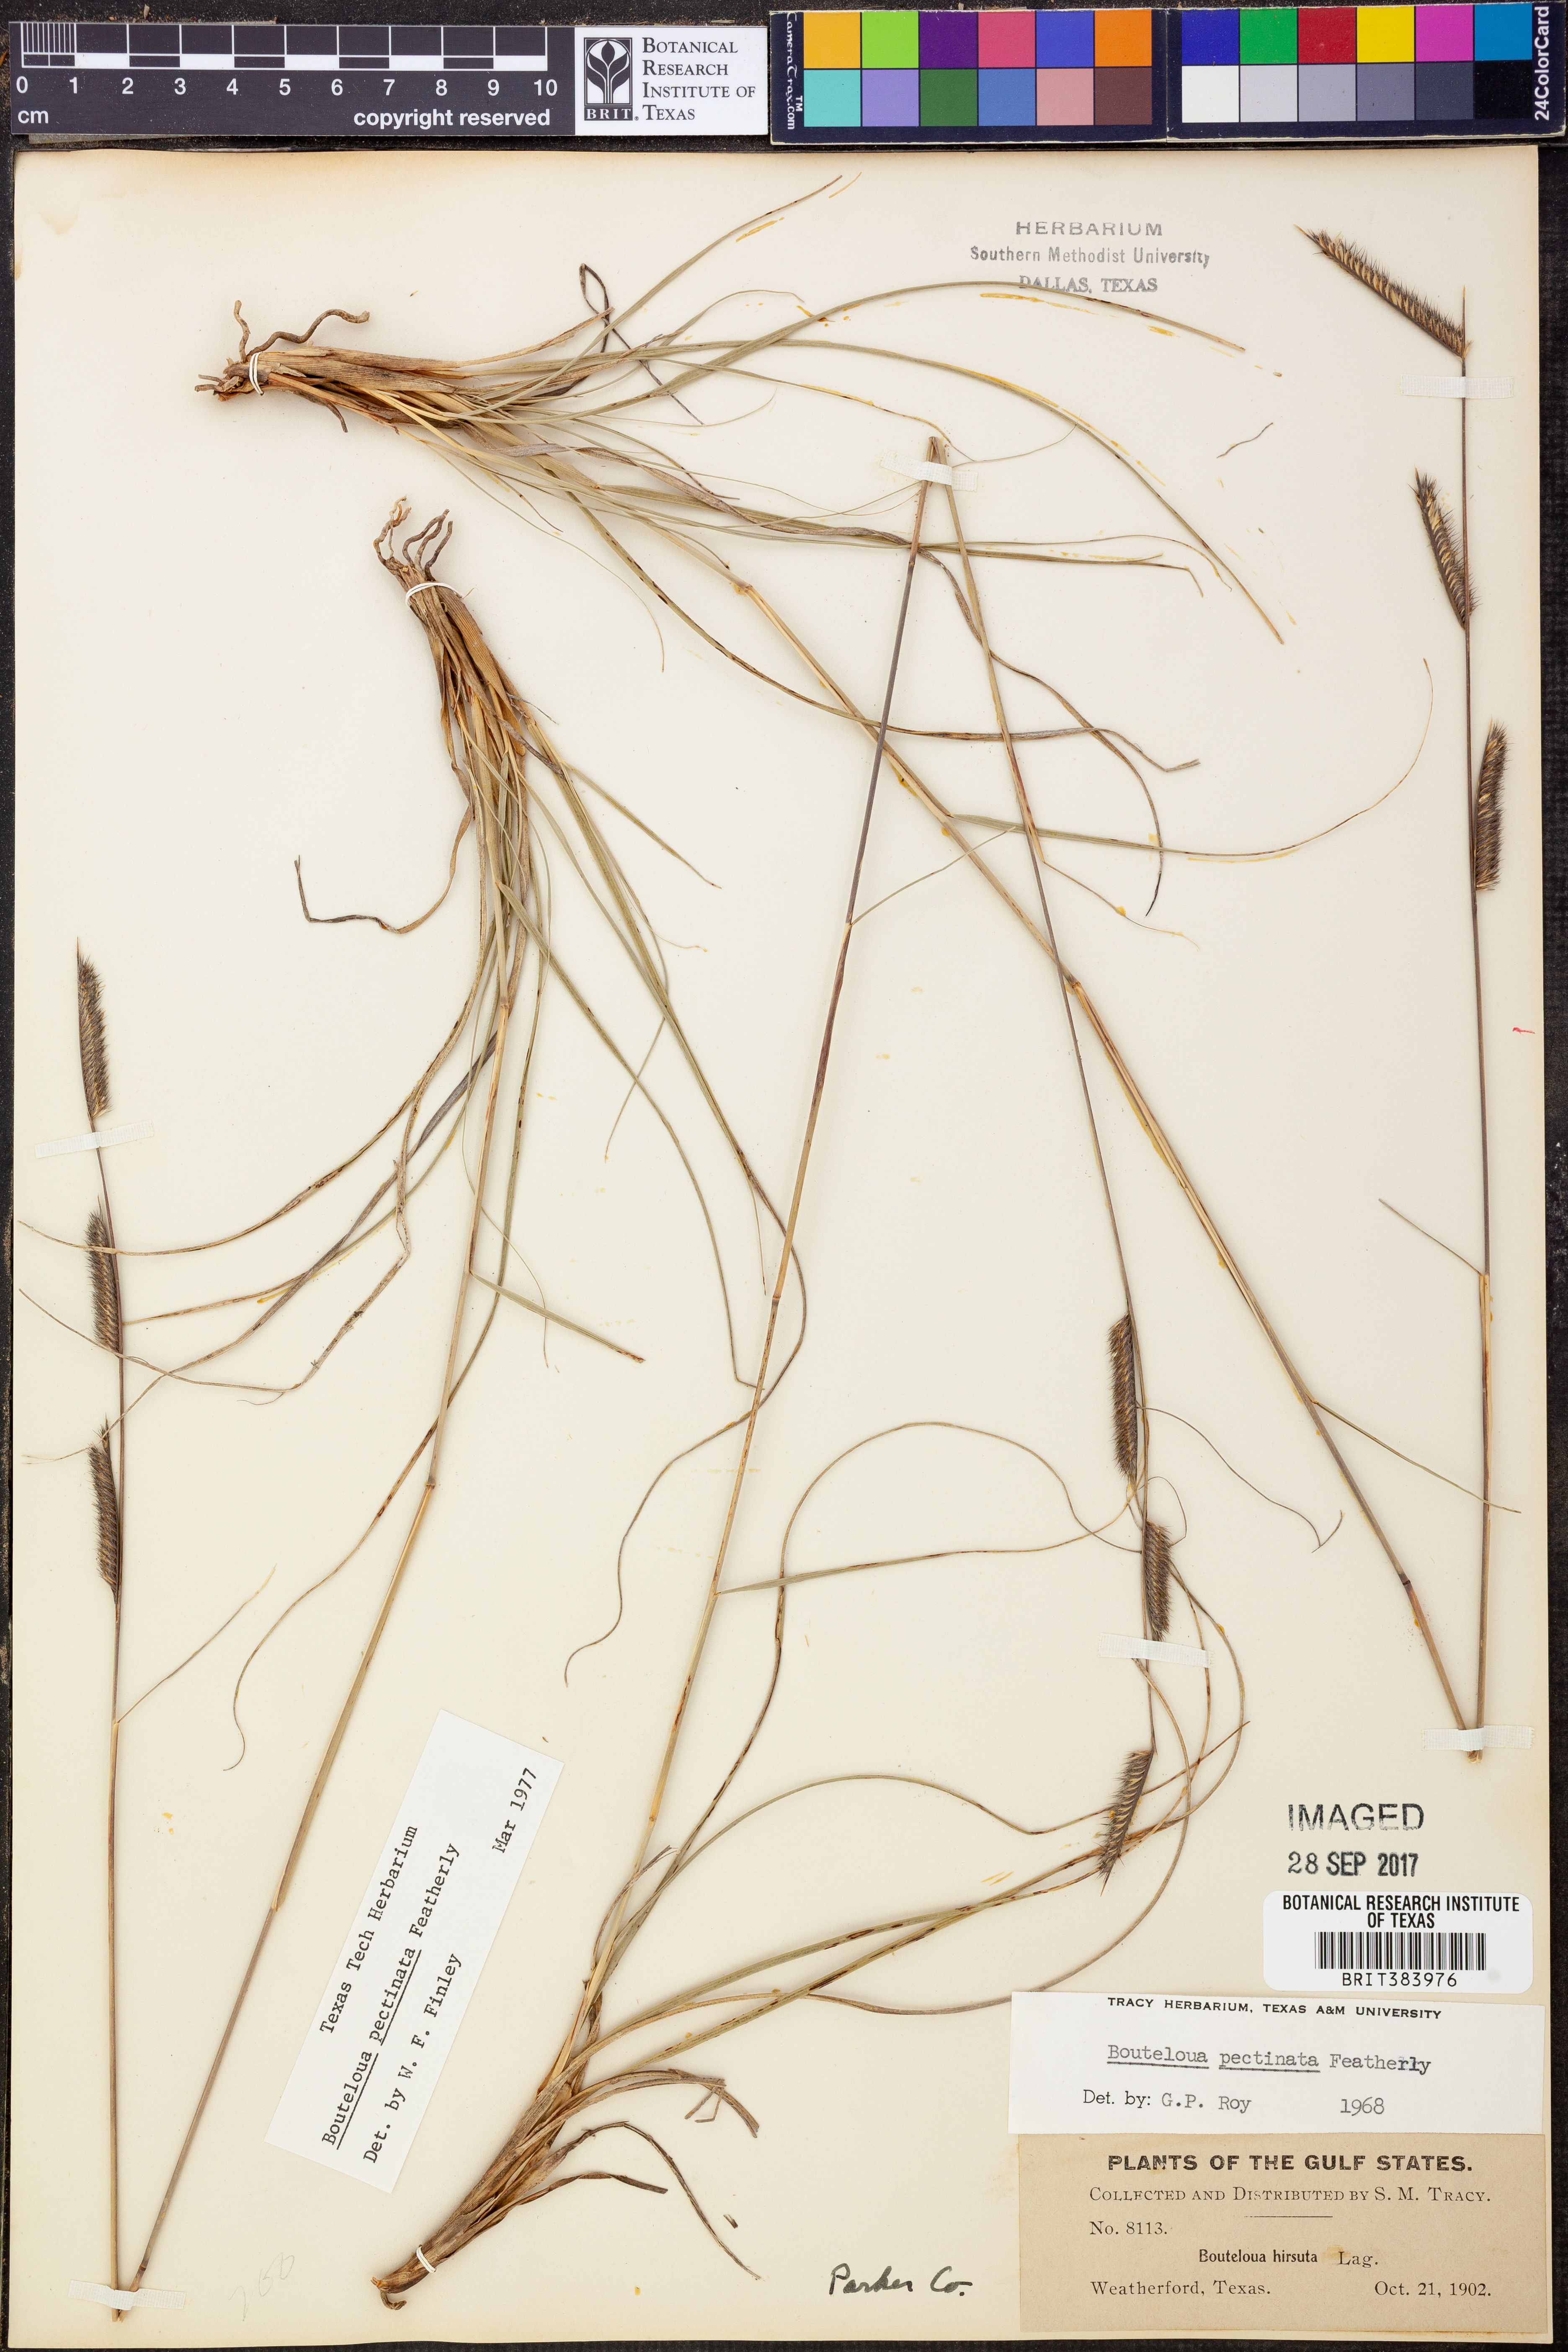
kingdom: Plantae
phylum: Tracheophyta
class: Liliopsida
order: Poales
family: Poaceae
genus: Bouteloua
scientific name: Bouteloua pectinata
